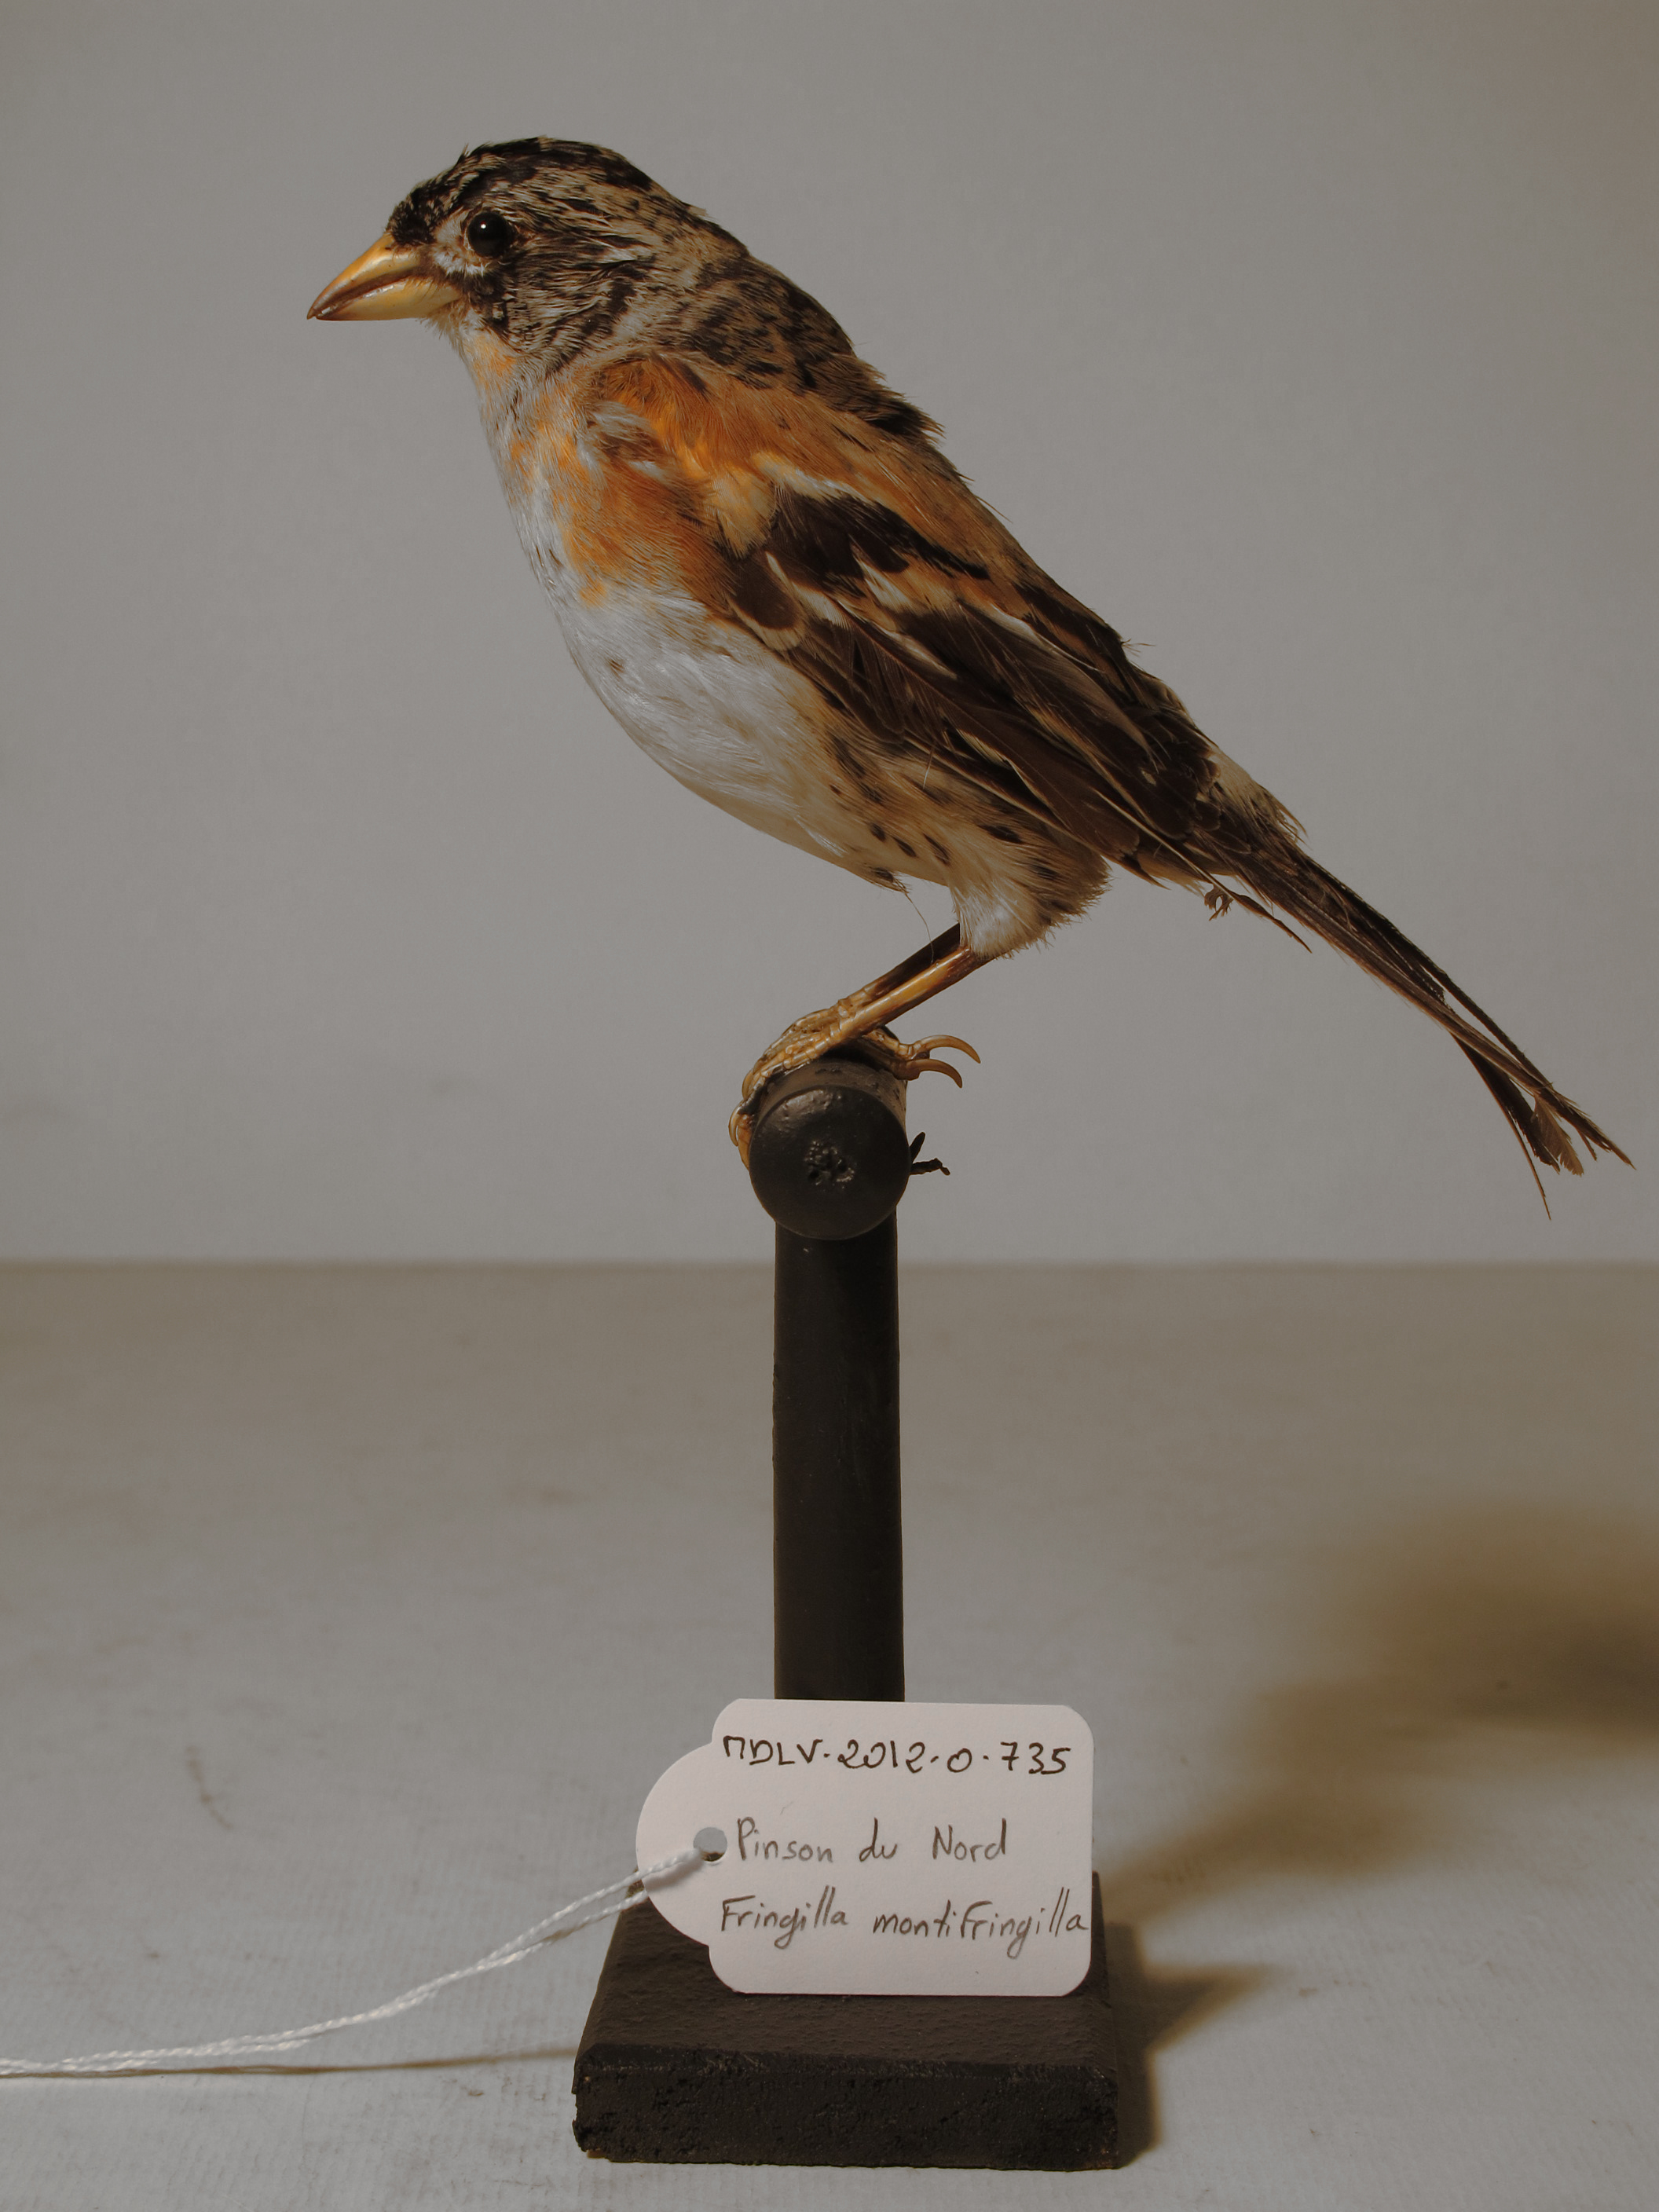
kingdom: Animalia
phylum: Chordata
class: Aves
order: Passeriformes
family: Fringillidae
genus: Fringilla
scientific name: Fringilla montifringilla
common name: Brambling
